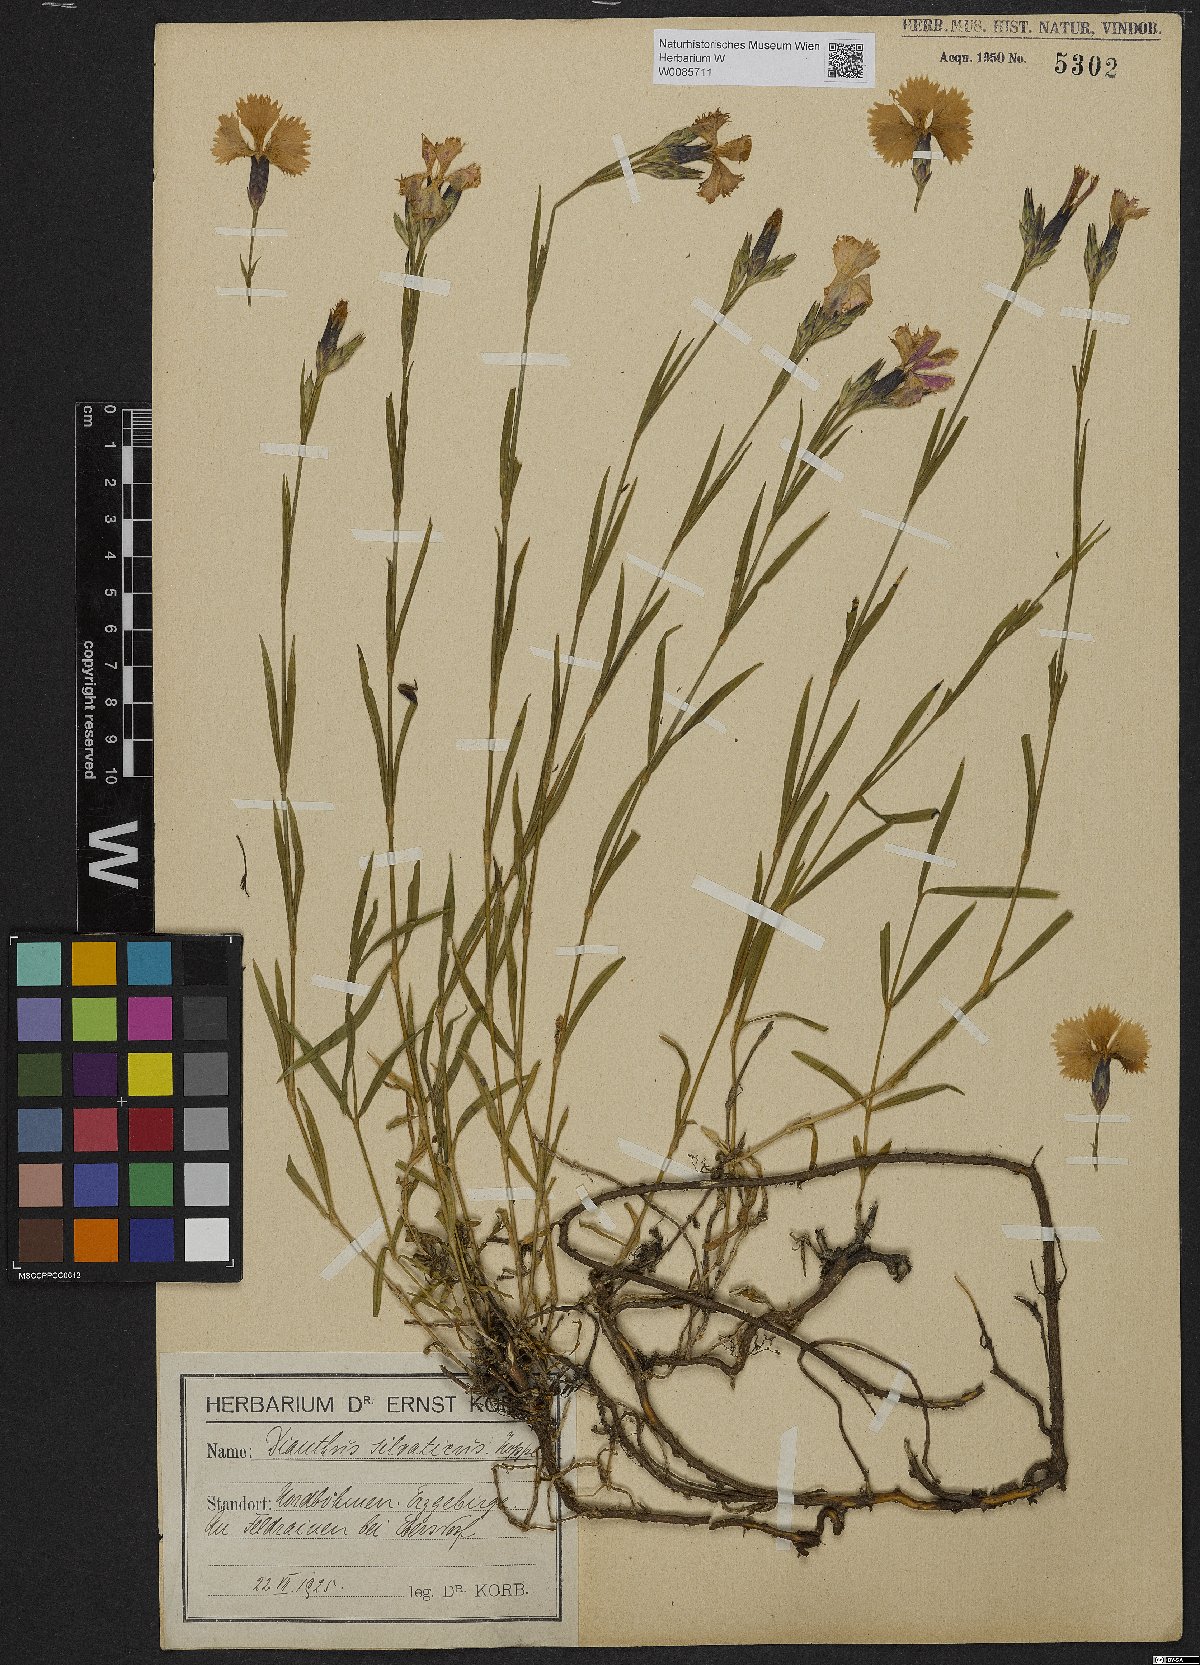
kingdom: Plantae
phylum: Tracheophyta
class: Magnoliopsida
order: Caryophyllales
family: Caryophyllaceae
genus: Dianthus
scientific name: Dianthus seguieri
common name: Ragged pink
